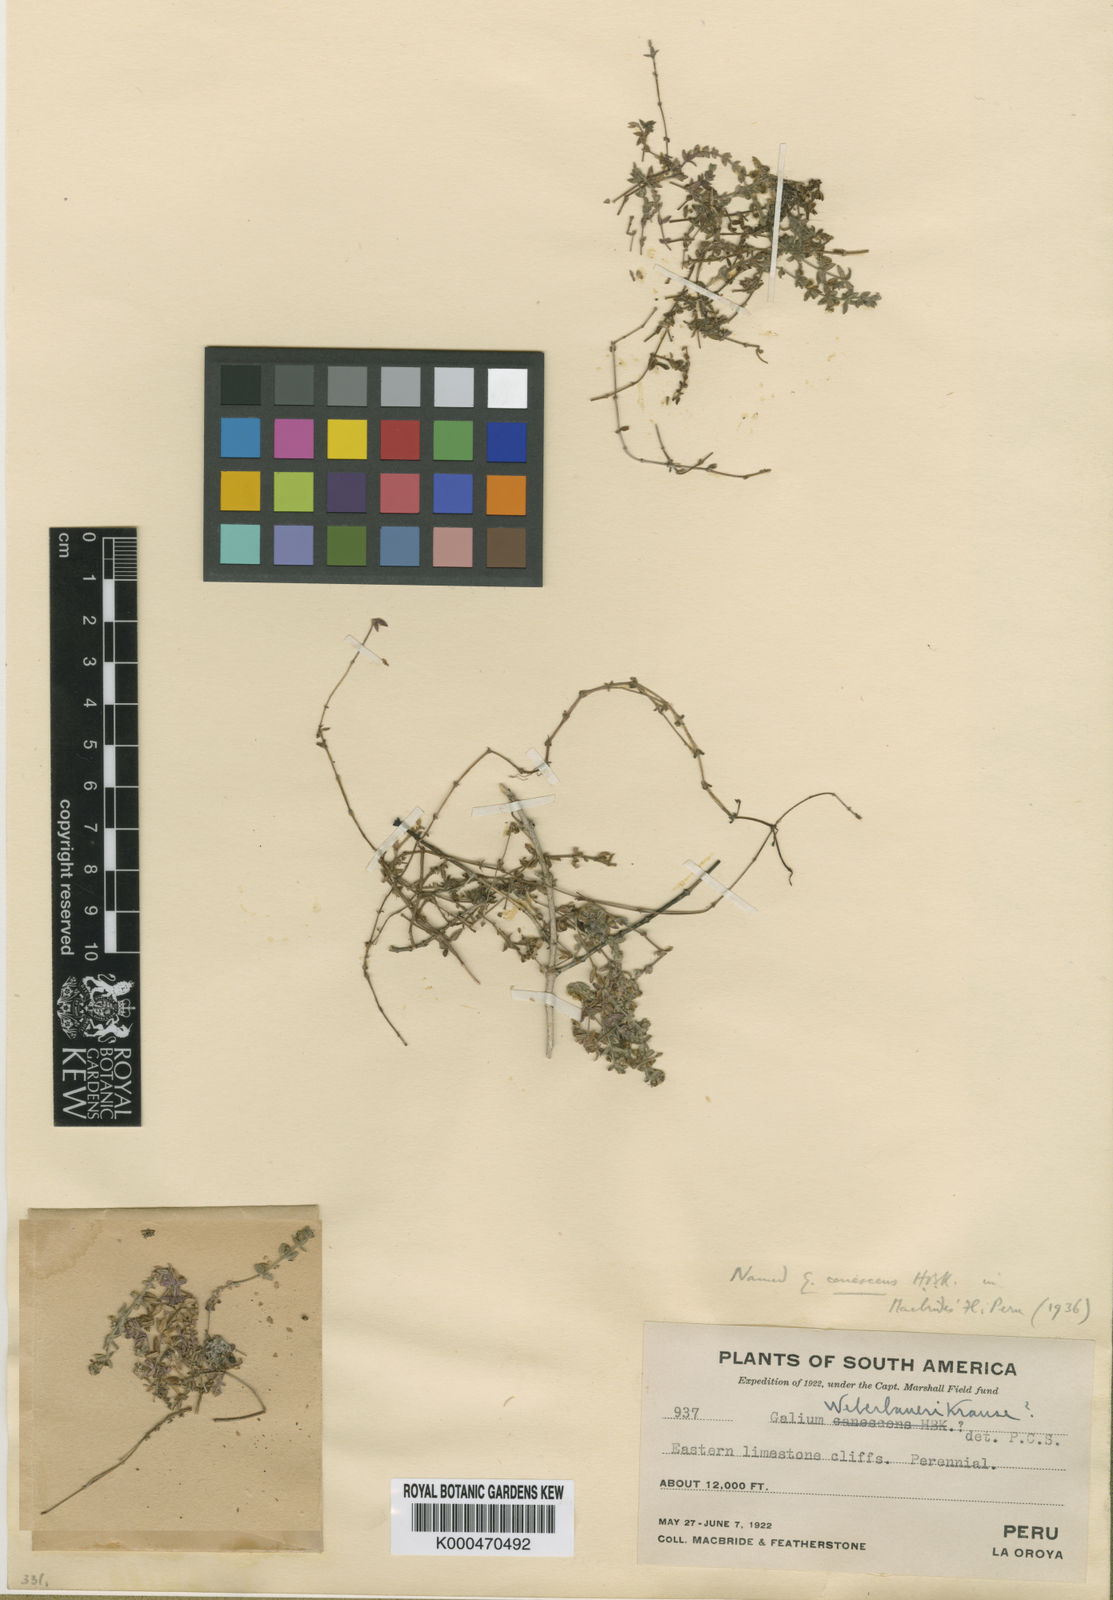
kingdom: Plantae
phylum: Tracheophyta
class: Magnoliopsida
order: Gentianales
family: Rubiaceae
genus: Galium
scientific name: Galium peruvianum
